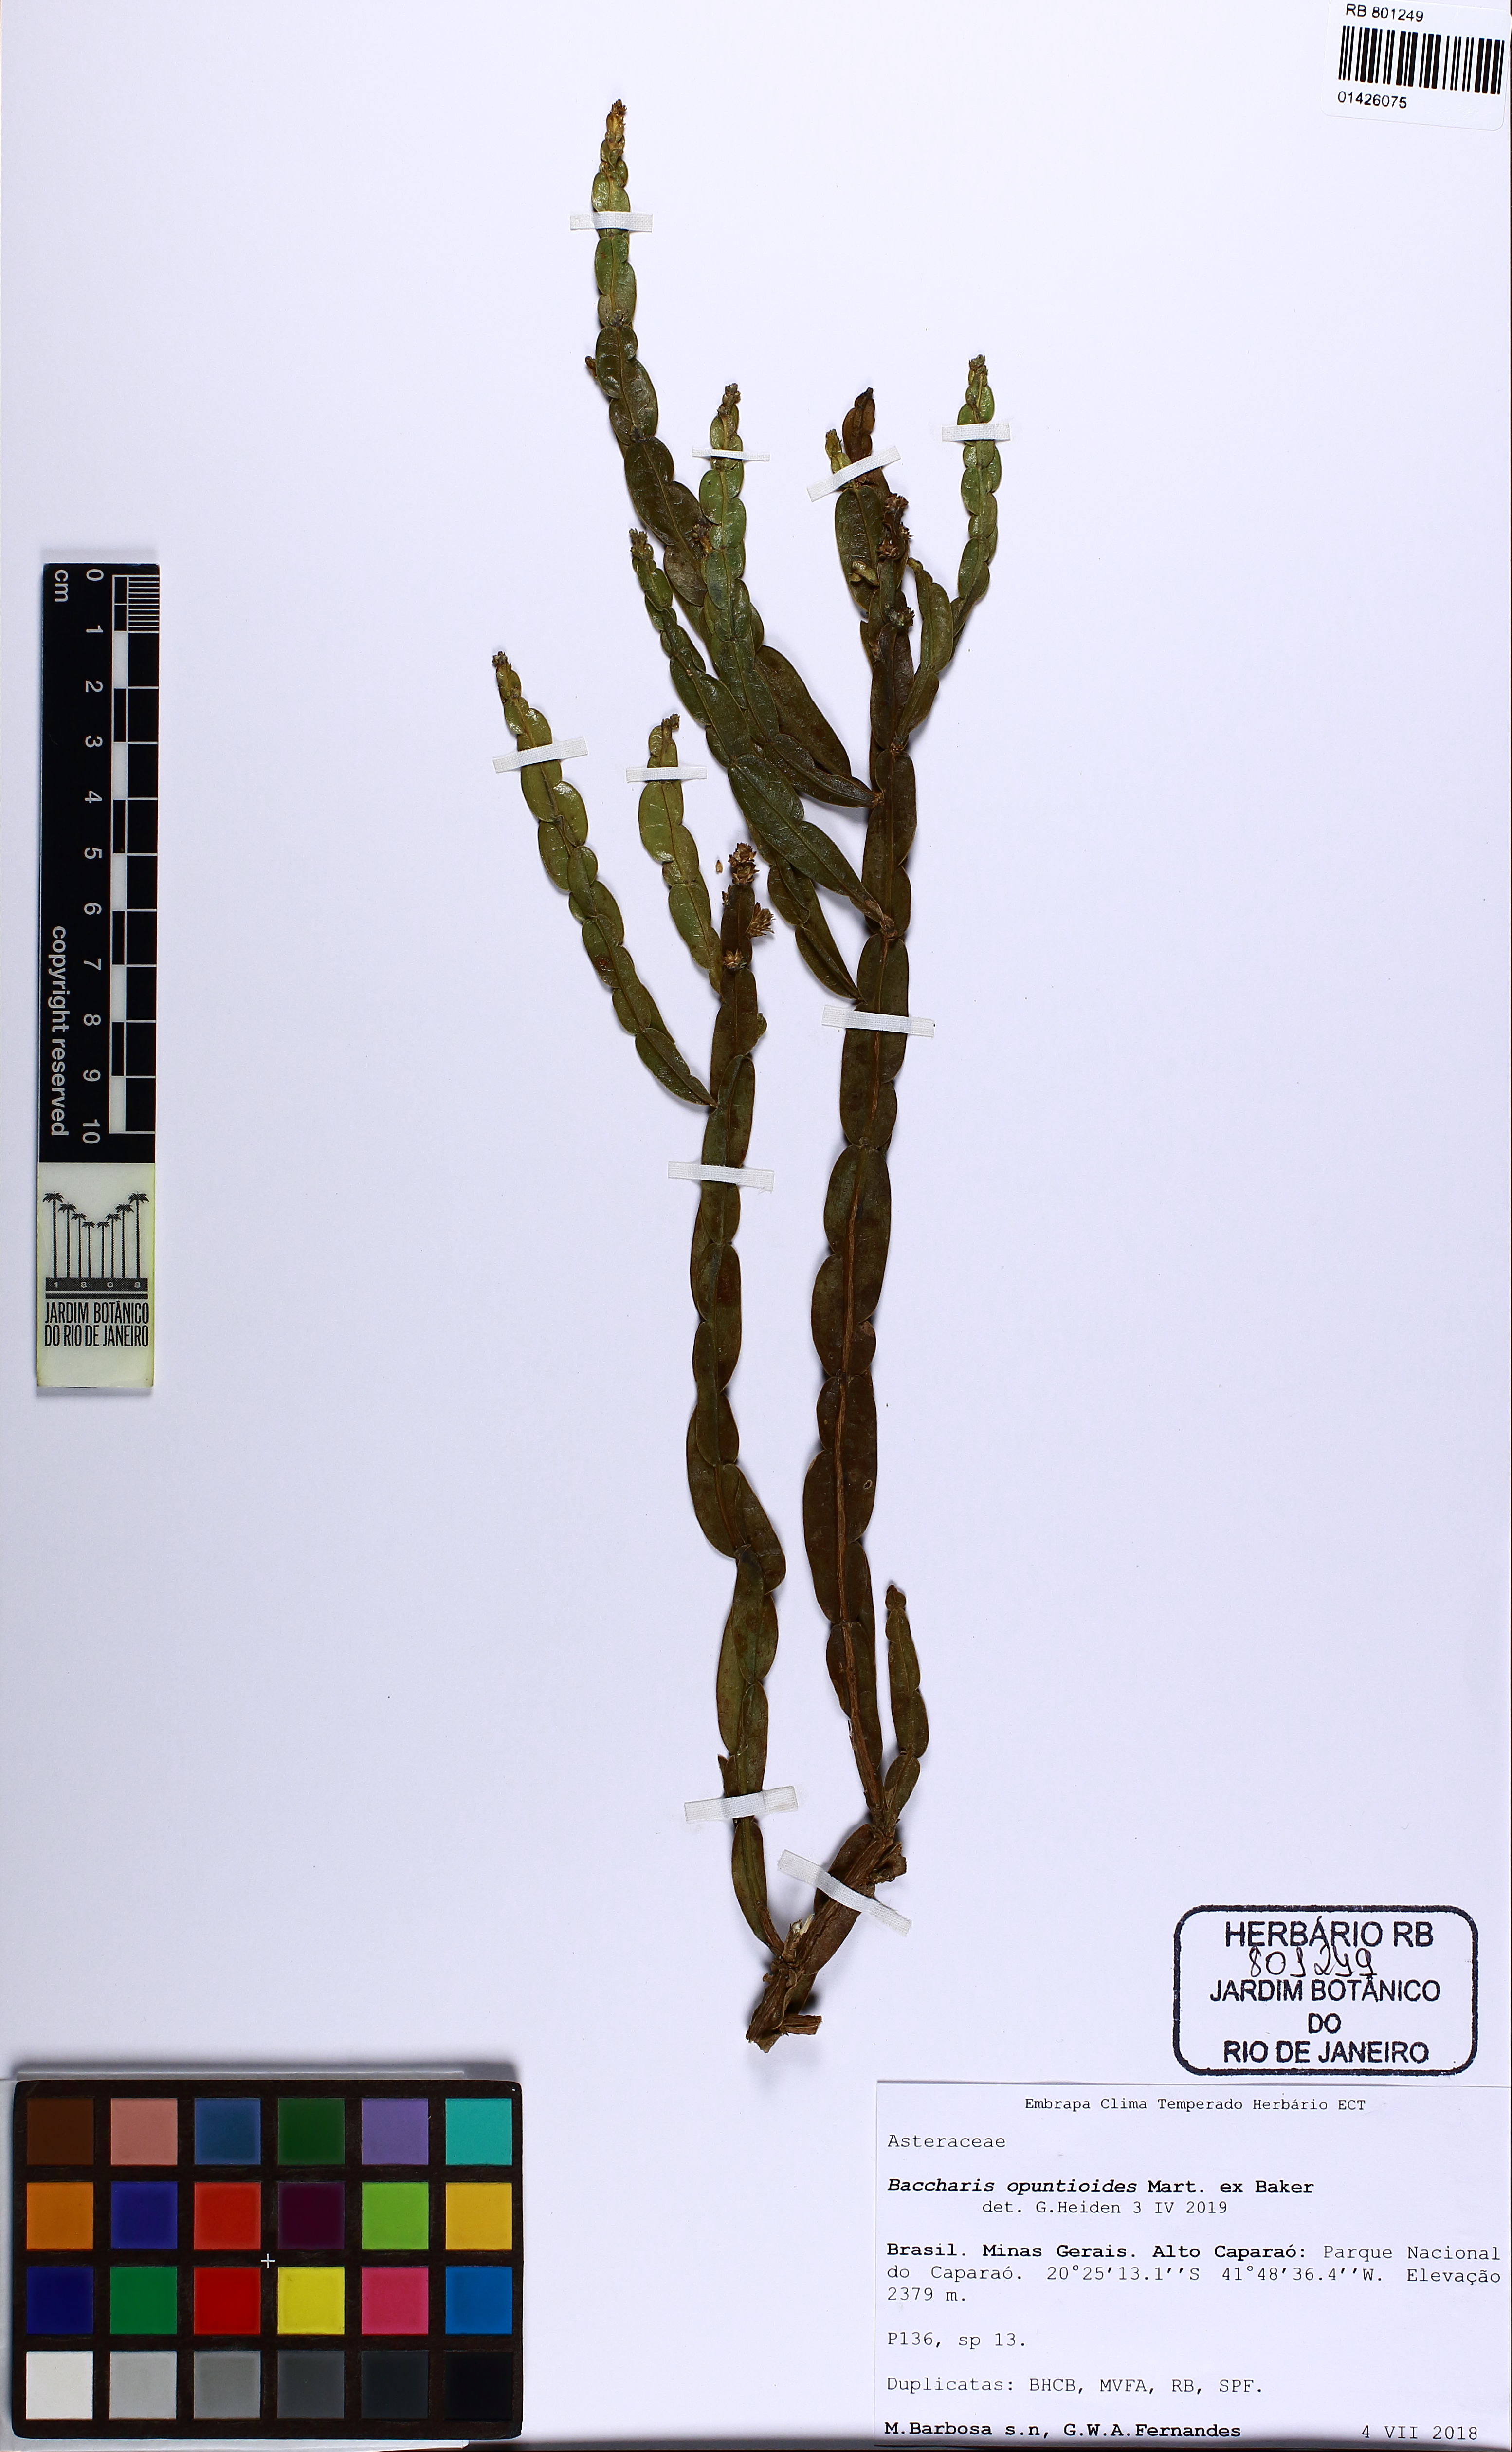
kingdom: Plantae
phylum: Tracheophyta
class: Magnoliopsida
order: Asterales
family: Asteraceae
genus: Baccharis
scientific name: Baccharis opuntioides
